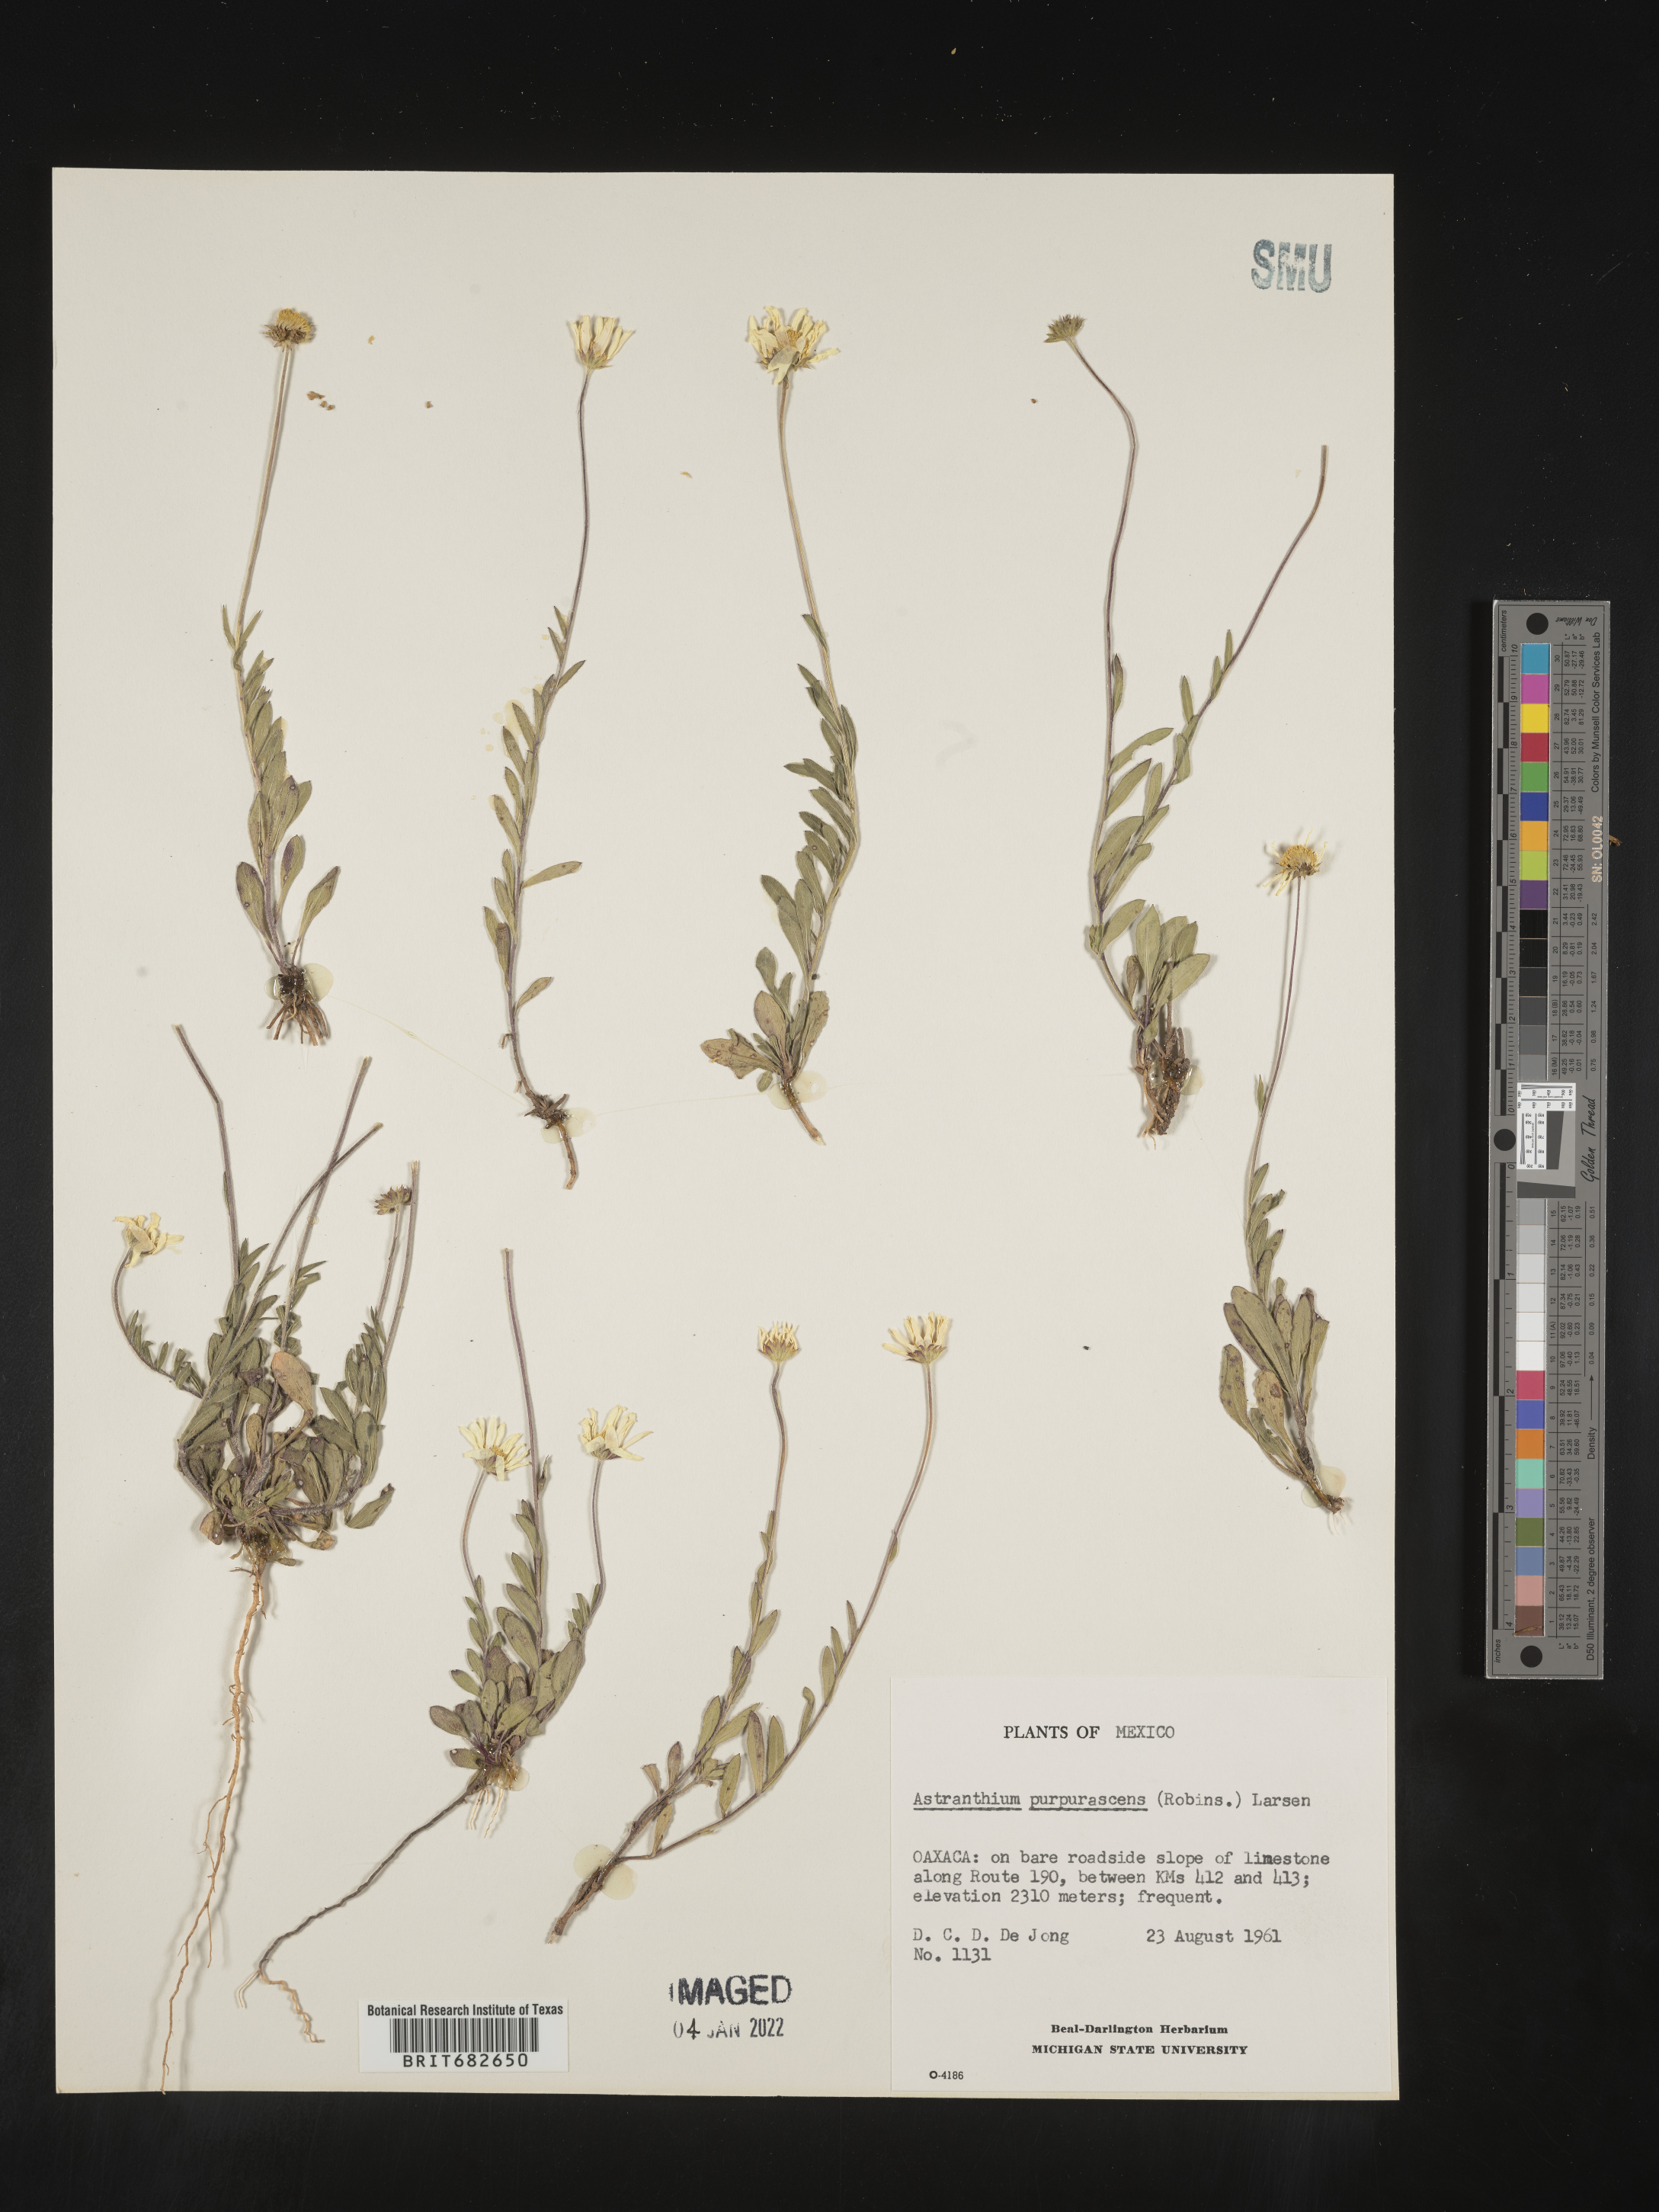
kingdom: Plantae
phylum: Tracheophyta
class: Magnoliopsida
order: Asterales
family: Asteraceae
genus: Astranthium
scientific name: Astranthium
